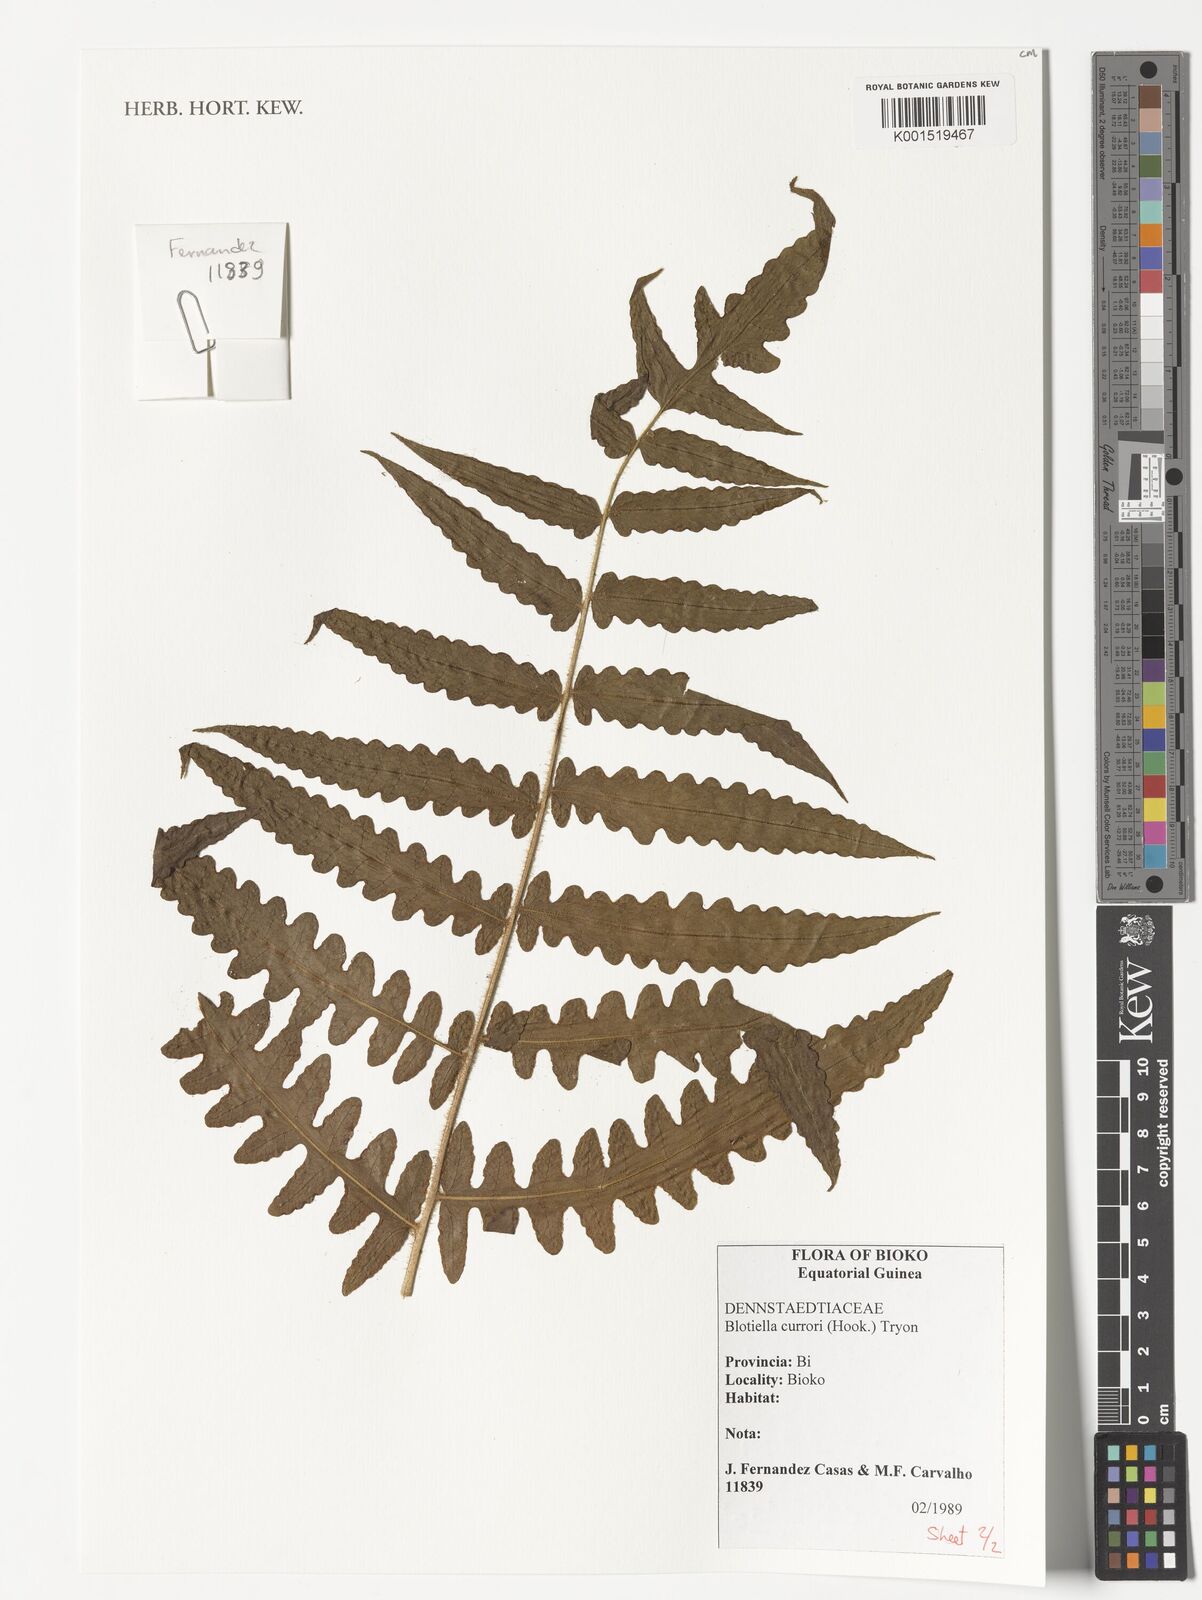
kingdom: Plantae
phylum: Tracheophyta
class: Polypodiopsida
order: Polypodiales
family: Dennstaedtiaceae
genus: Blotiella
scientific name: Blotiella currorii
